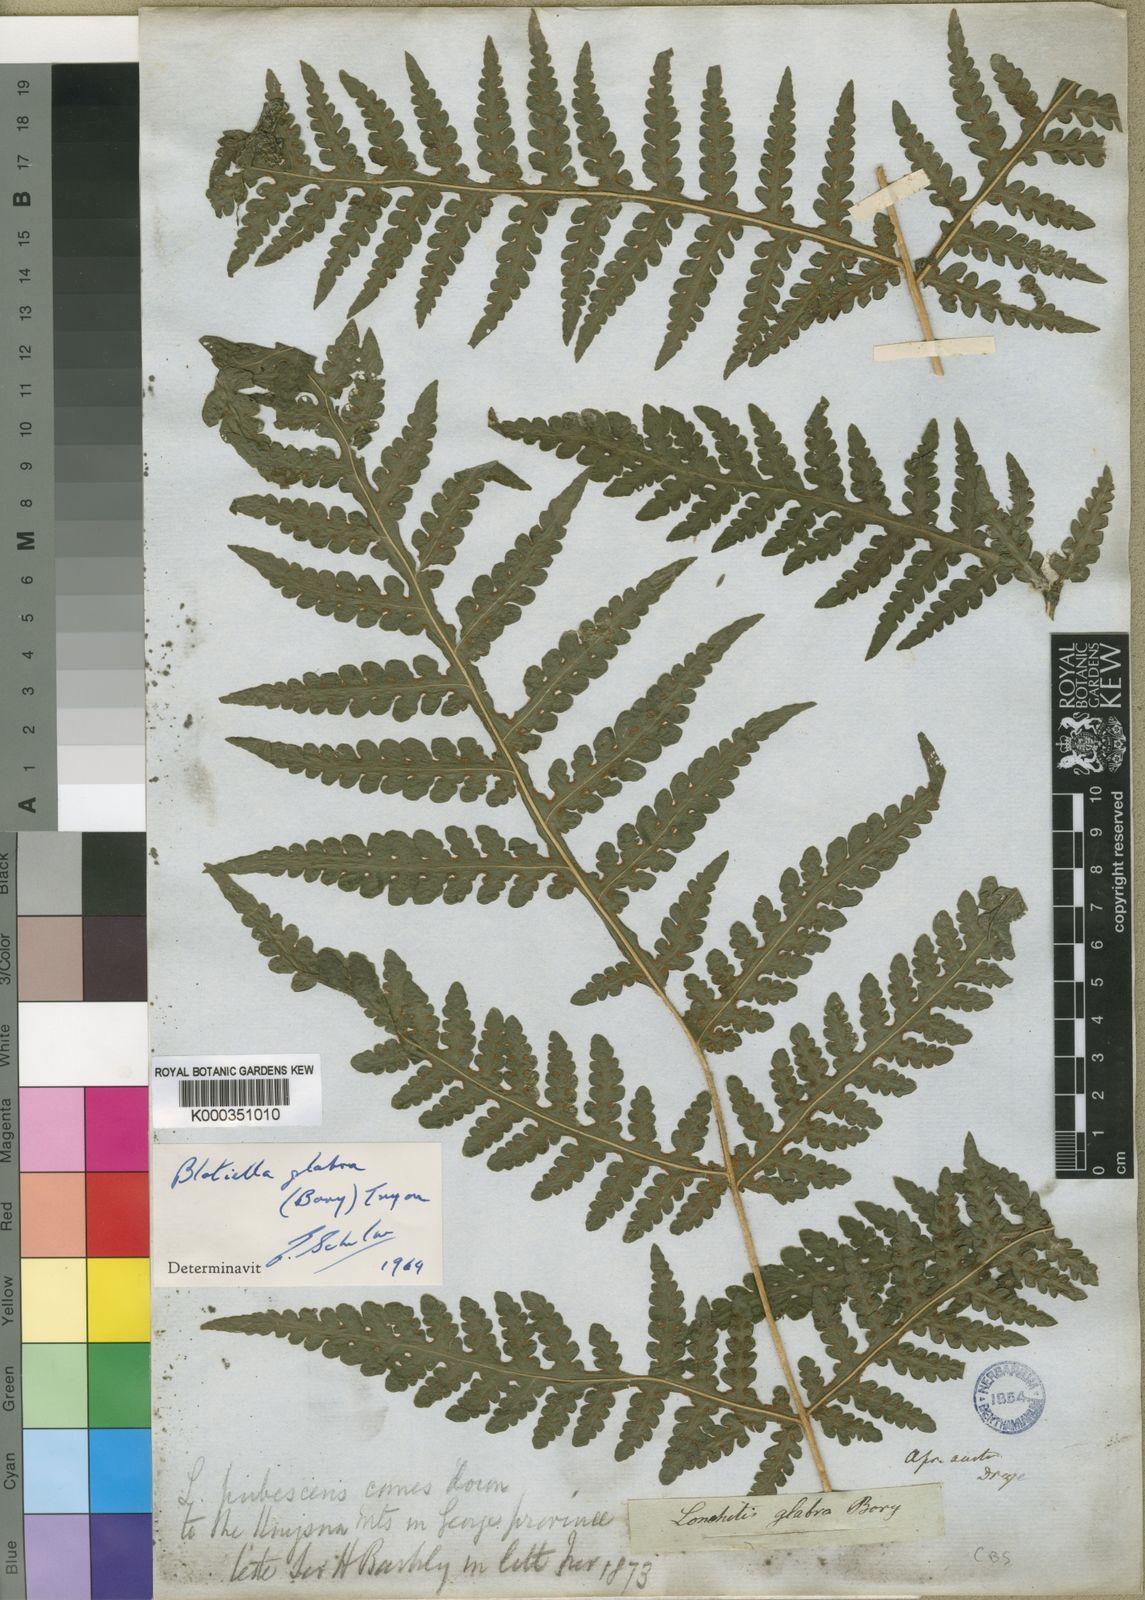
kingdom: Plantae
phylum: Tracheophyta
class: Polypodiopsida
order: Polypodiales
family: Dennstaedtiaceae
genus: Blotiella
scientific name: Blotiella glabra
